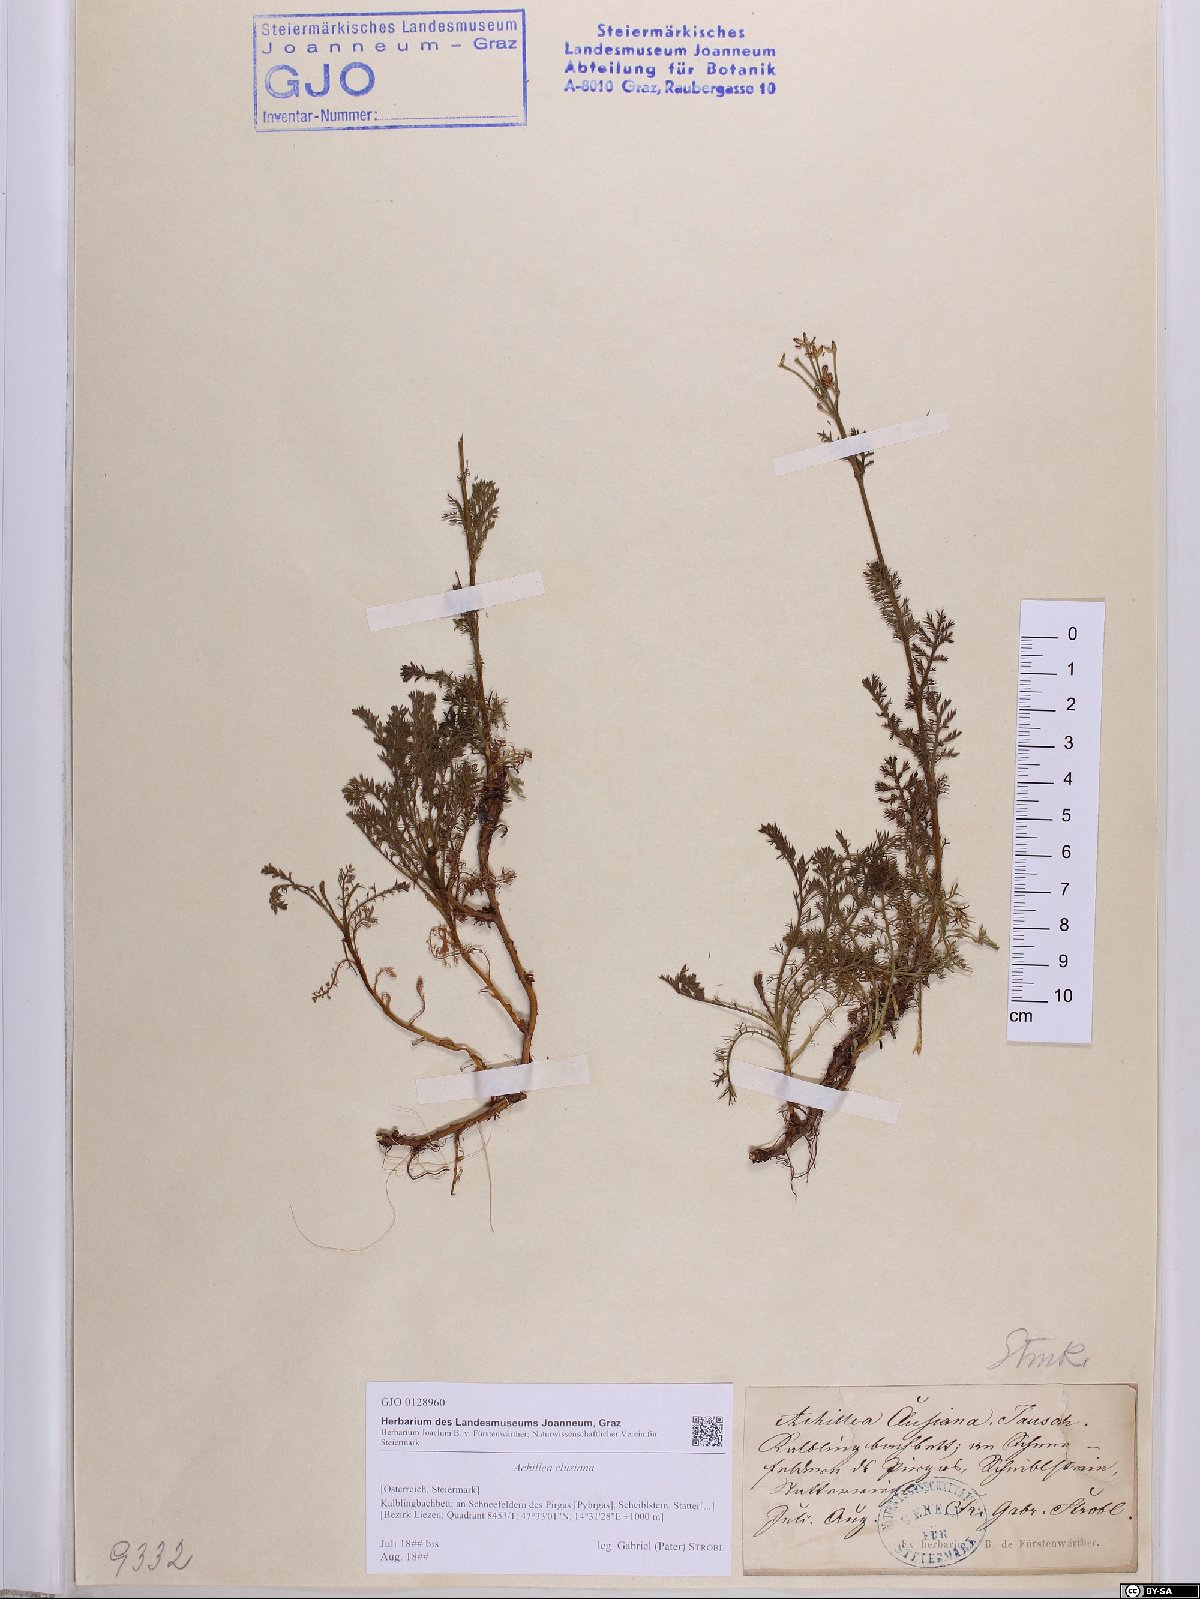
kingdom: Plantae
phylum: Tracheophyta
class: Magnoliopsida
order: Asterales
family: Asteraceae
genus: Achillea
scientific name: Achillea clusiana
